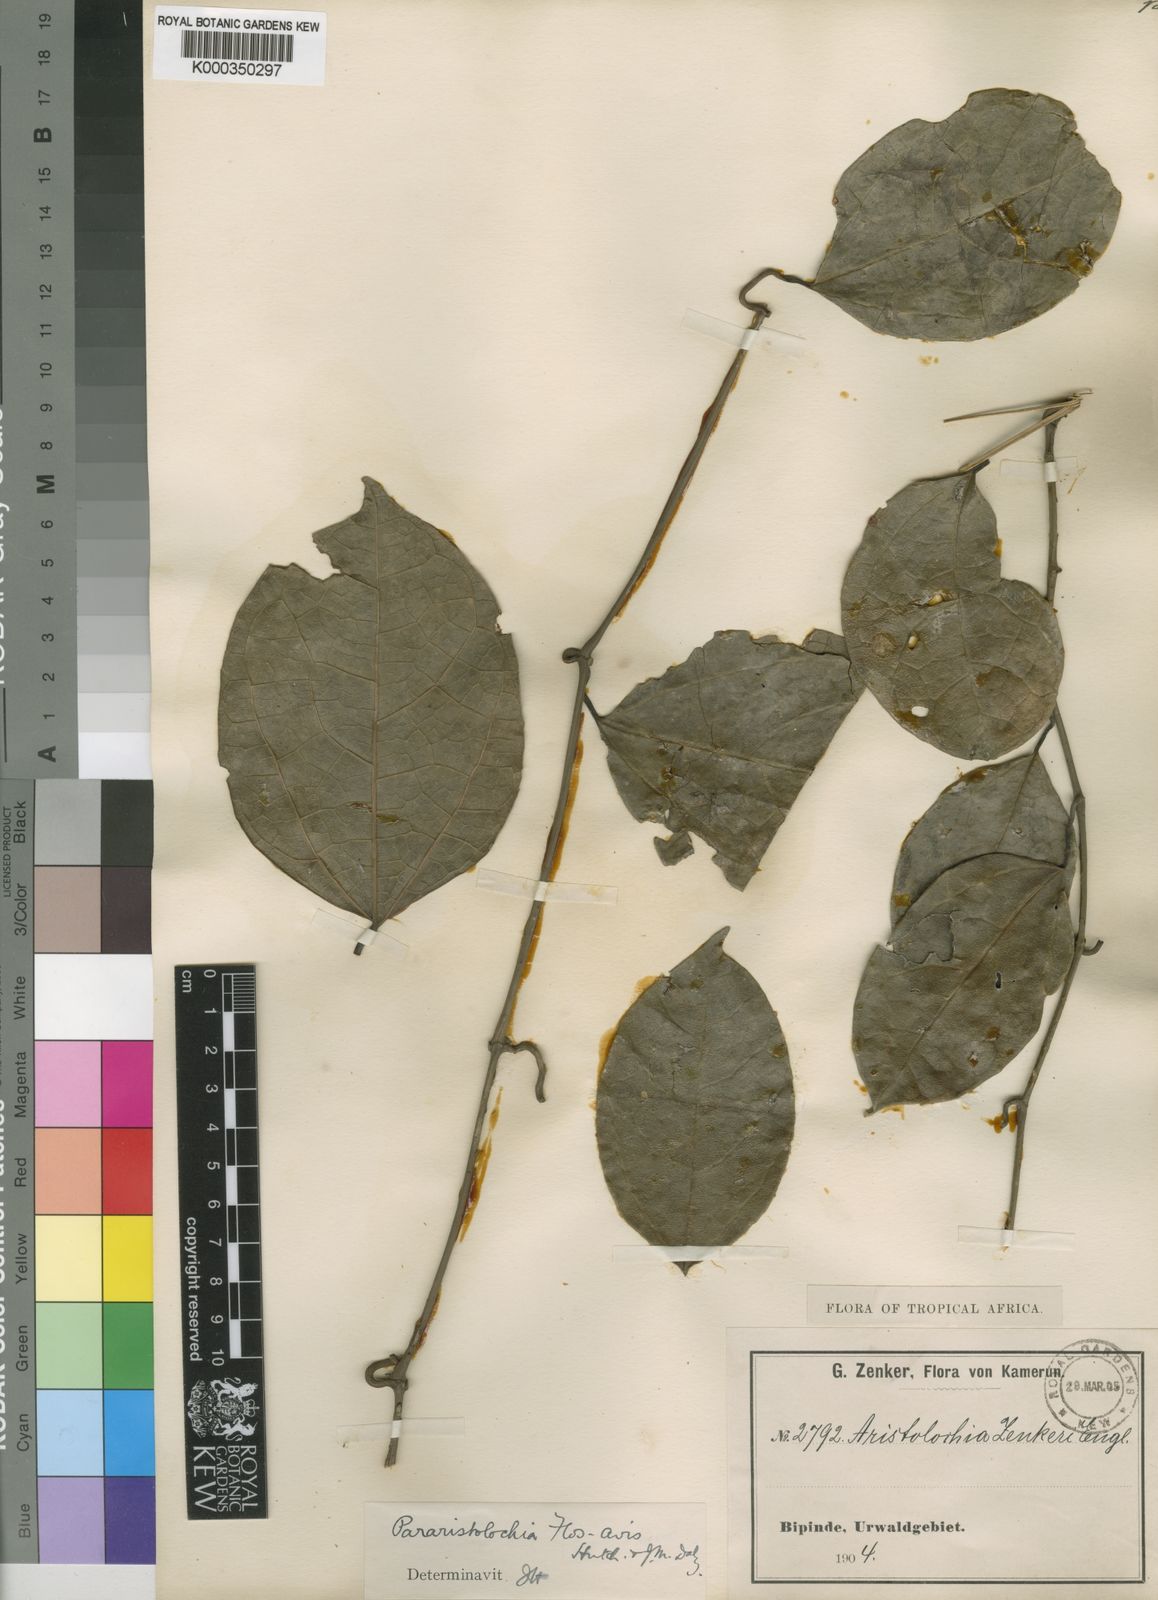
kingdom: Plantae
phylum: Tracheophyta
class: Magnoliopsida
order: Piperales
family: Aristolochiaceae
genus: Aristolochia
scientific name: Aristolochia macrocarpa
